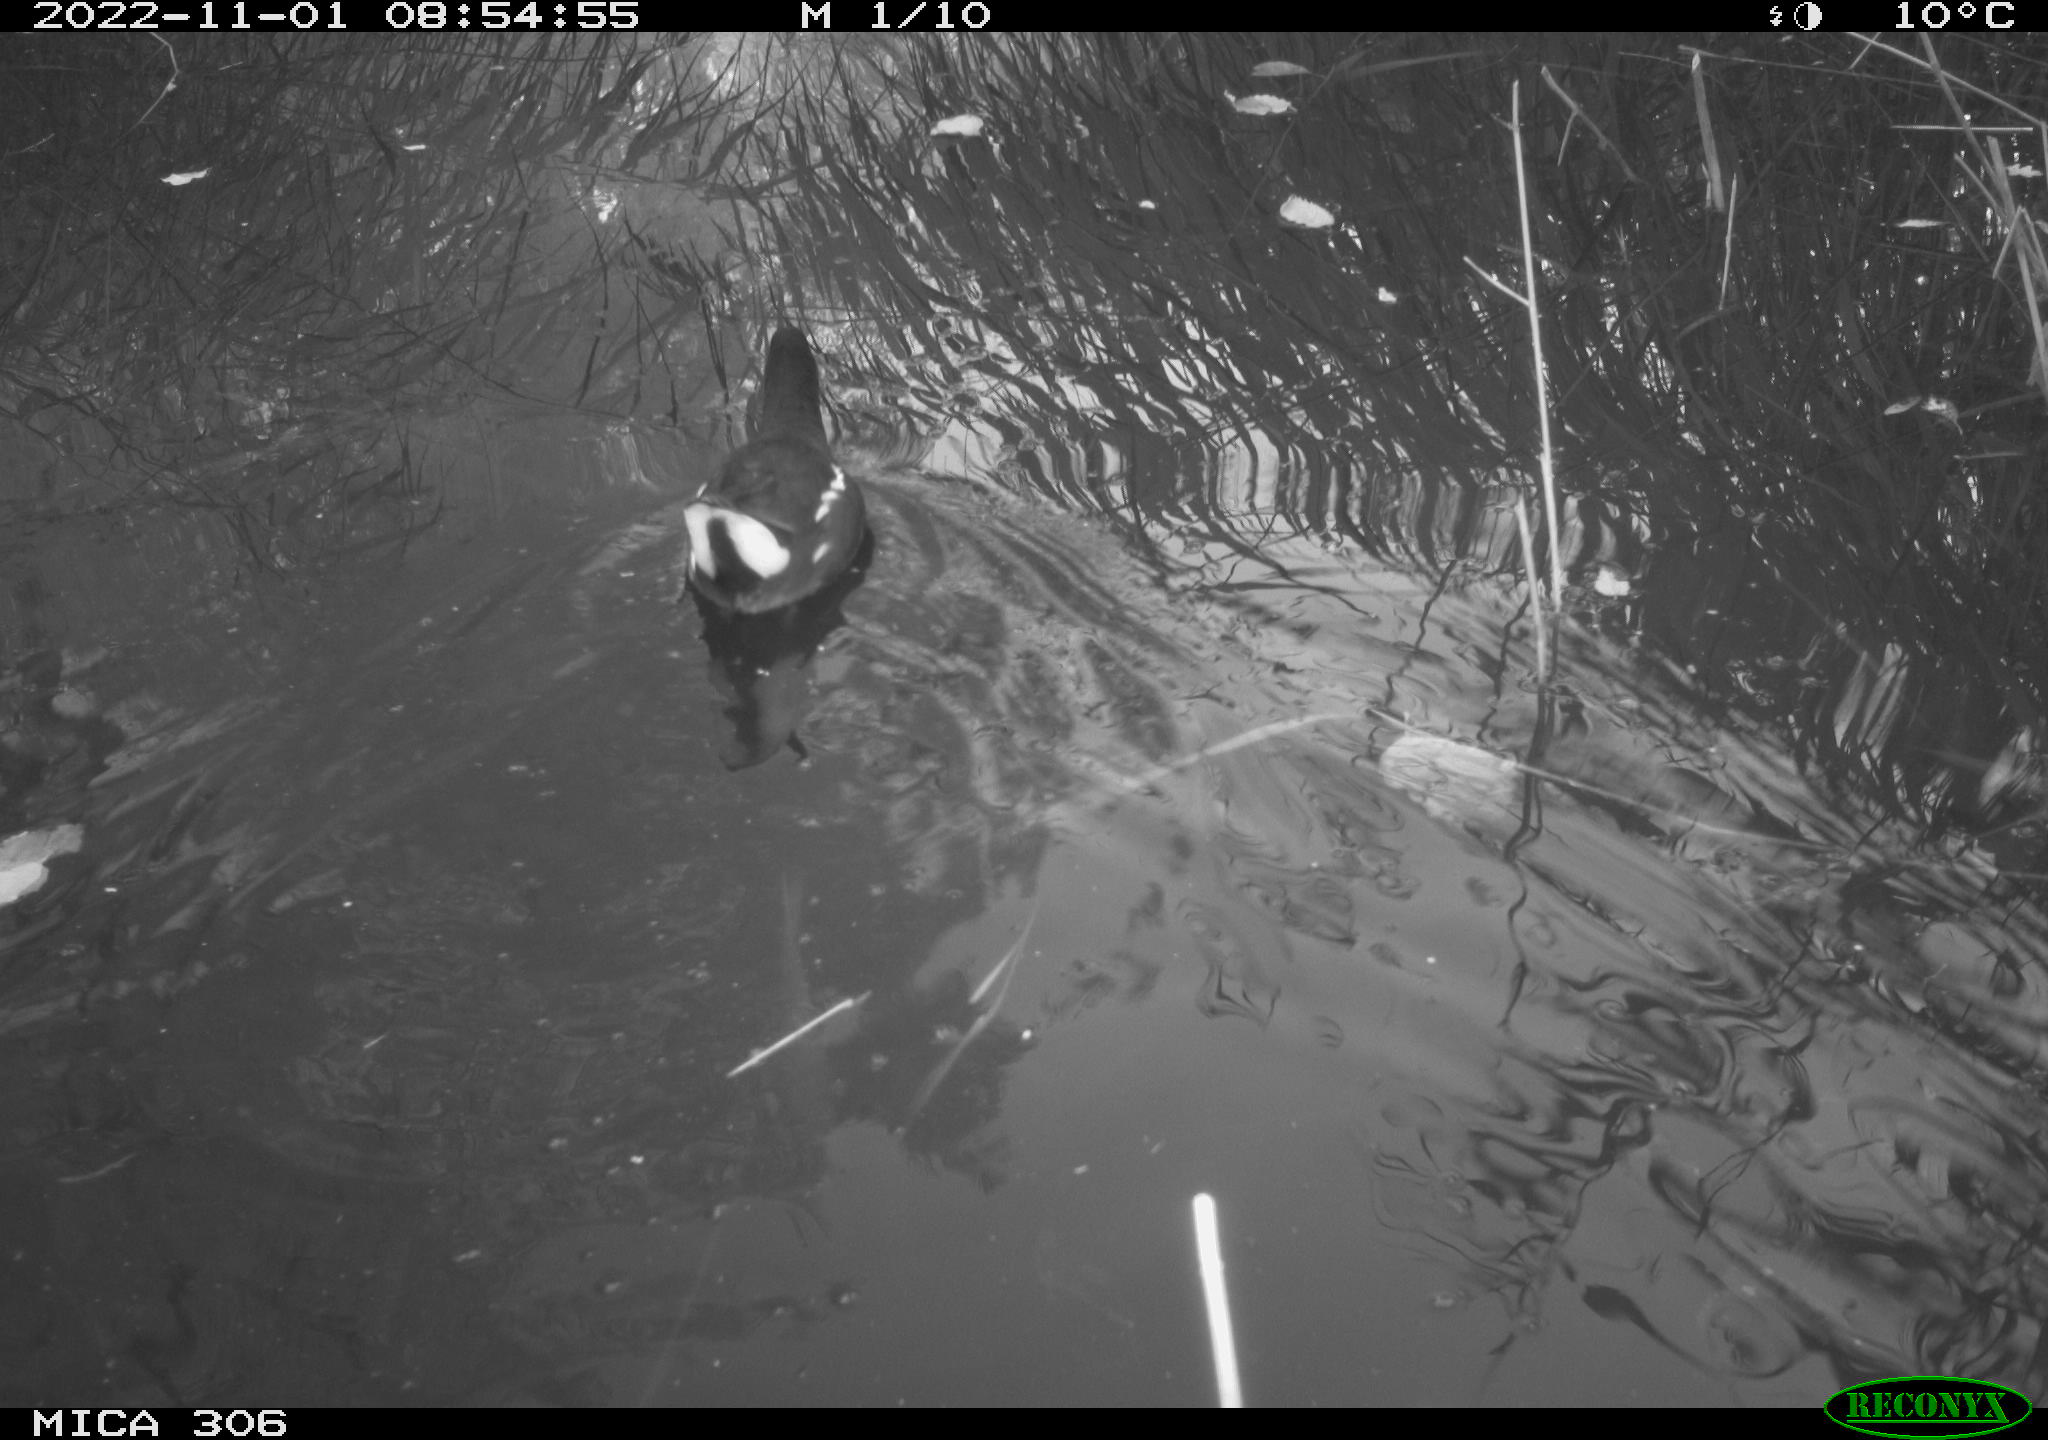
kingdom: Animalia
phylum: Chordata
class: Aves
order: Gruiformes
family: Rallidae
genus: Gallinula
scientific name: Gallinula chloropus
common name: Common moorhen
